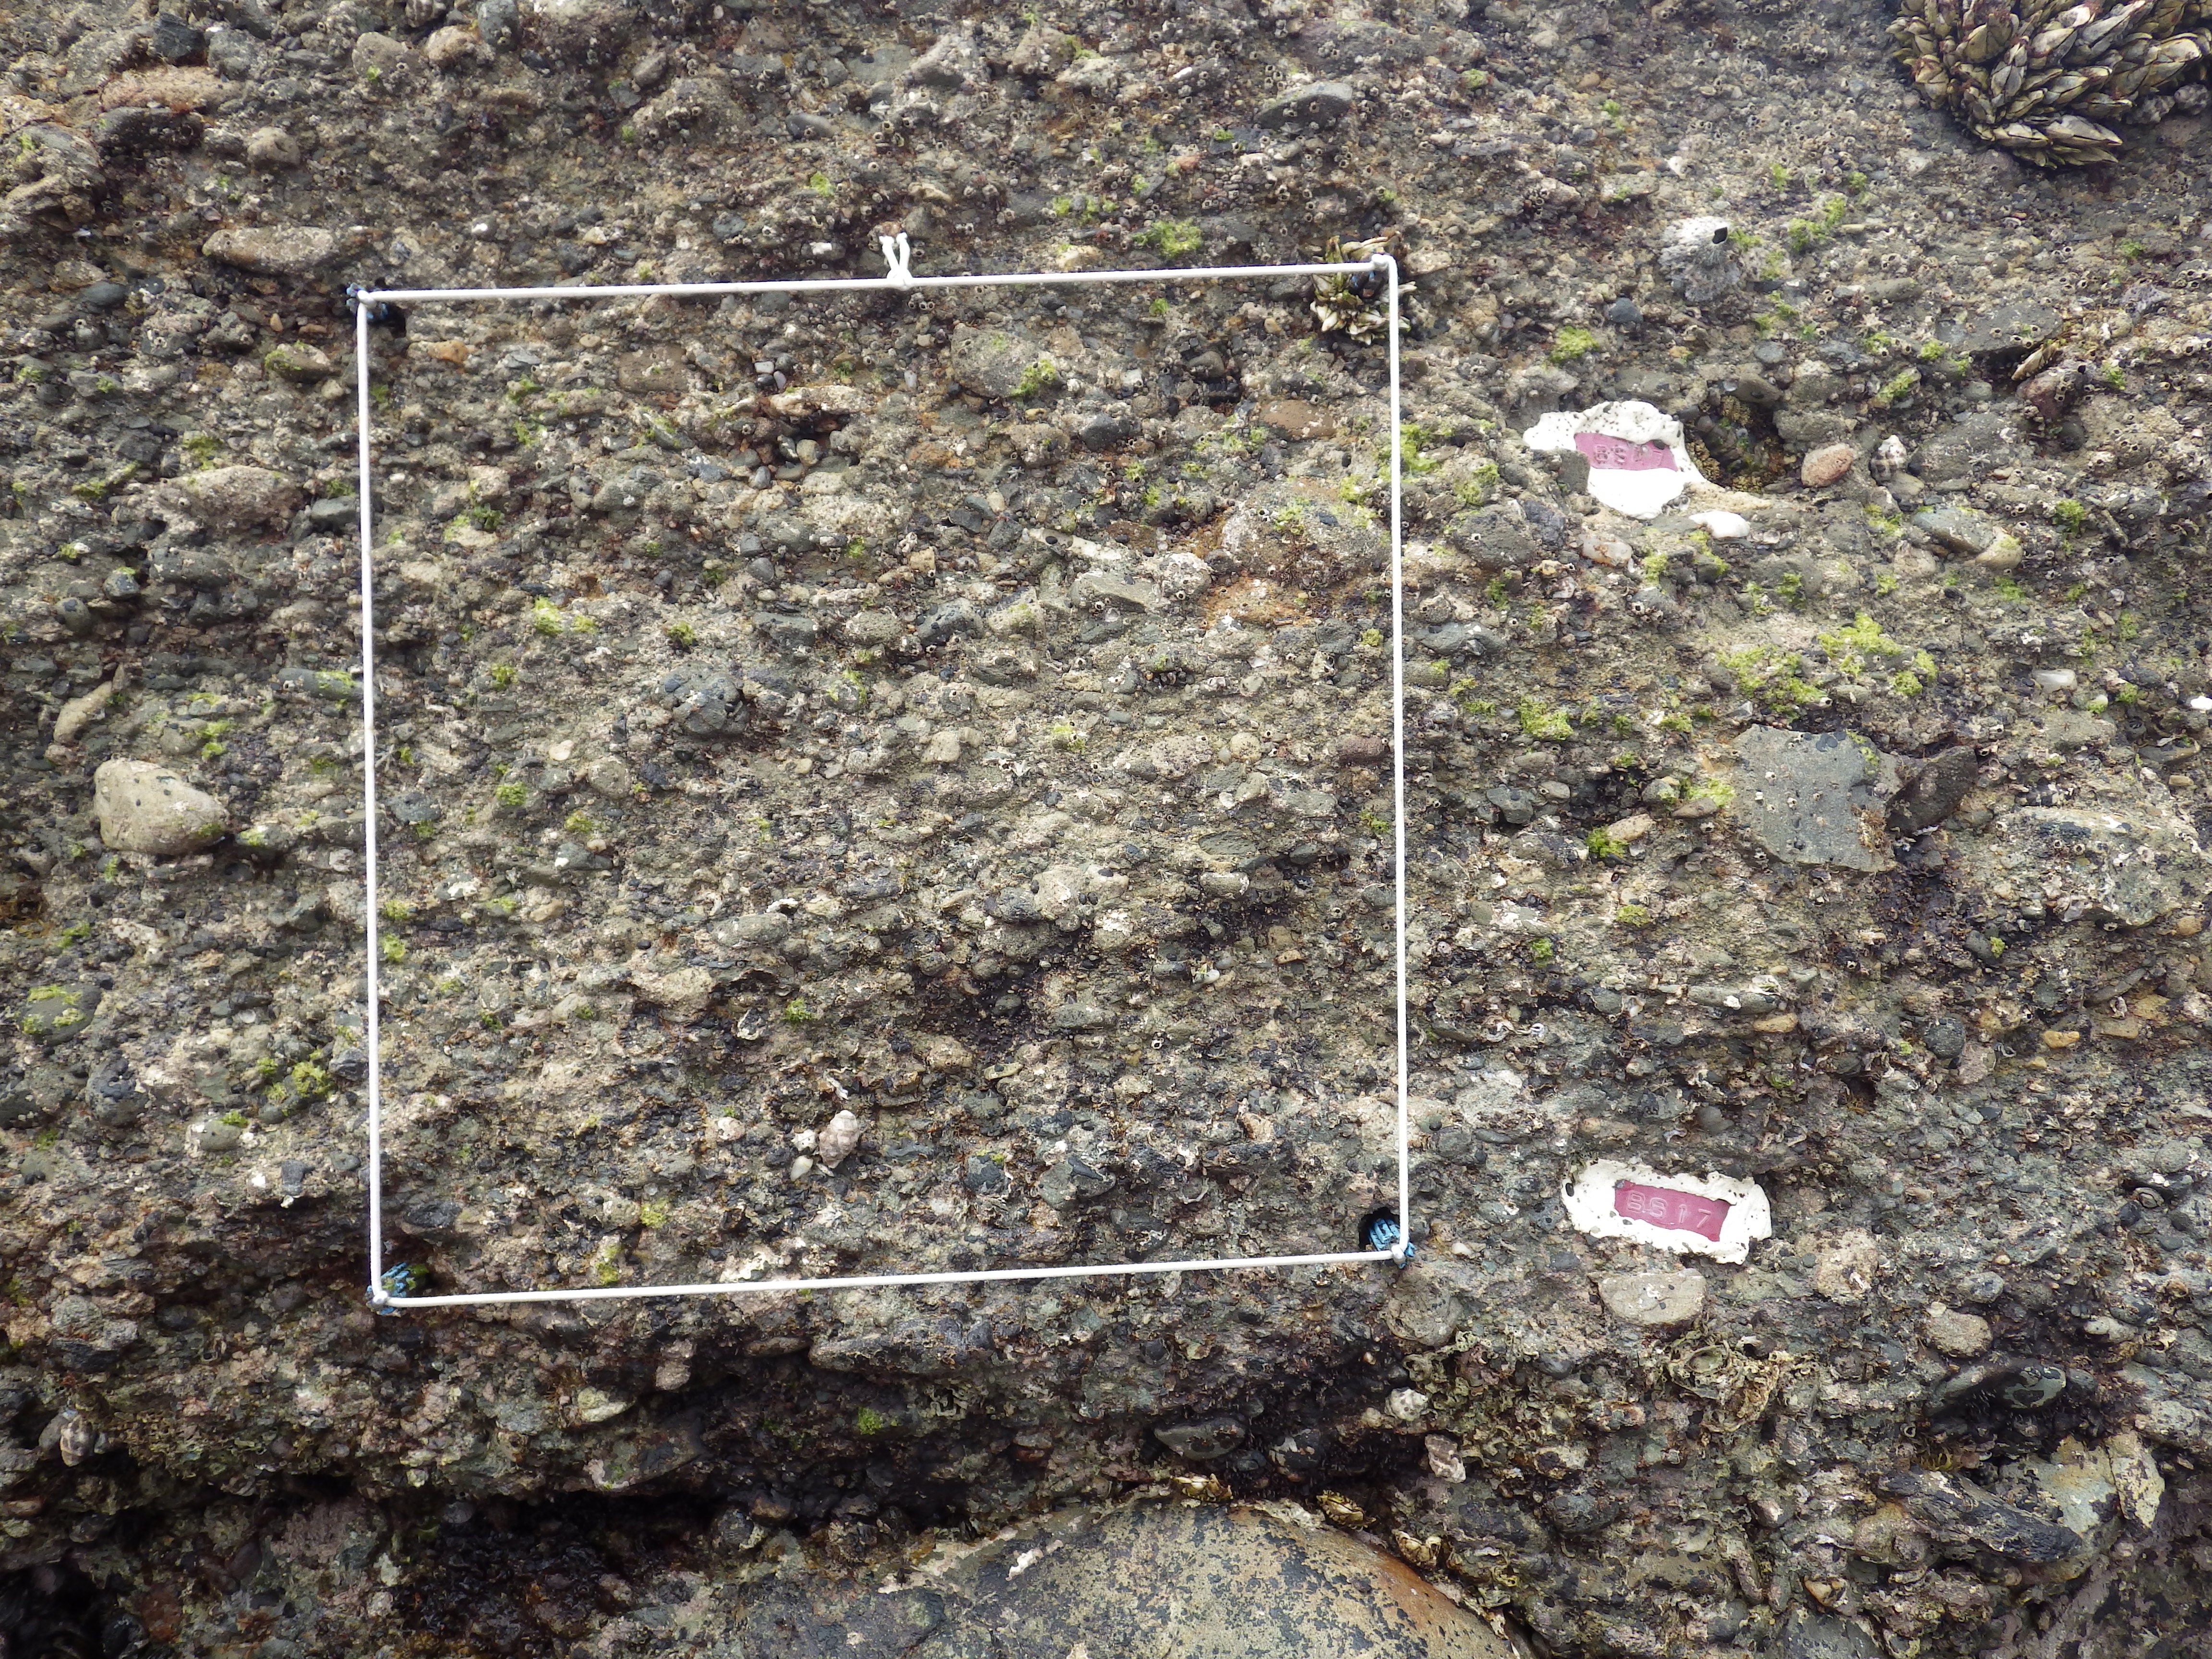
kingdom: Animalia
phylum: Arthropoda
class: Maxillopoda
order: Sessilia
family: Chthamalidae
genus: Chthamalus
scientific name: Chthamalus challengeri
